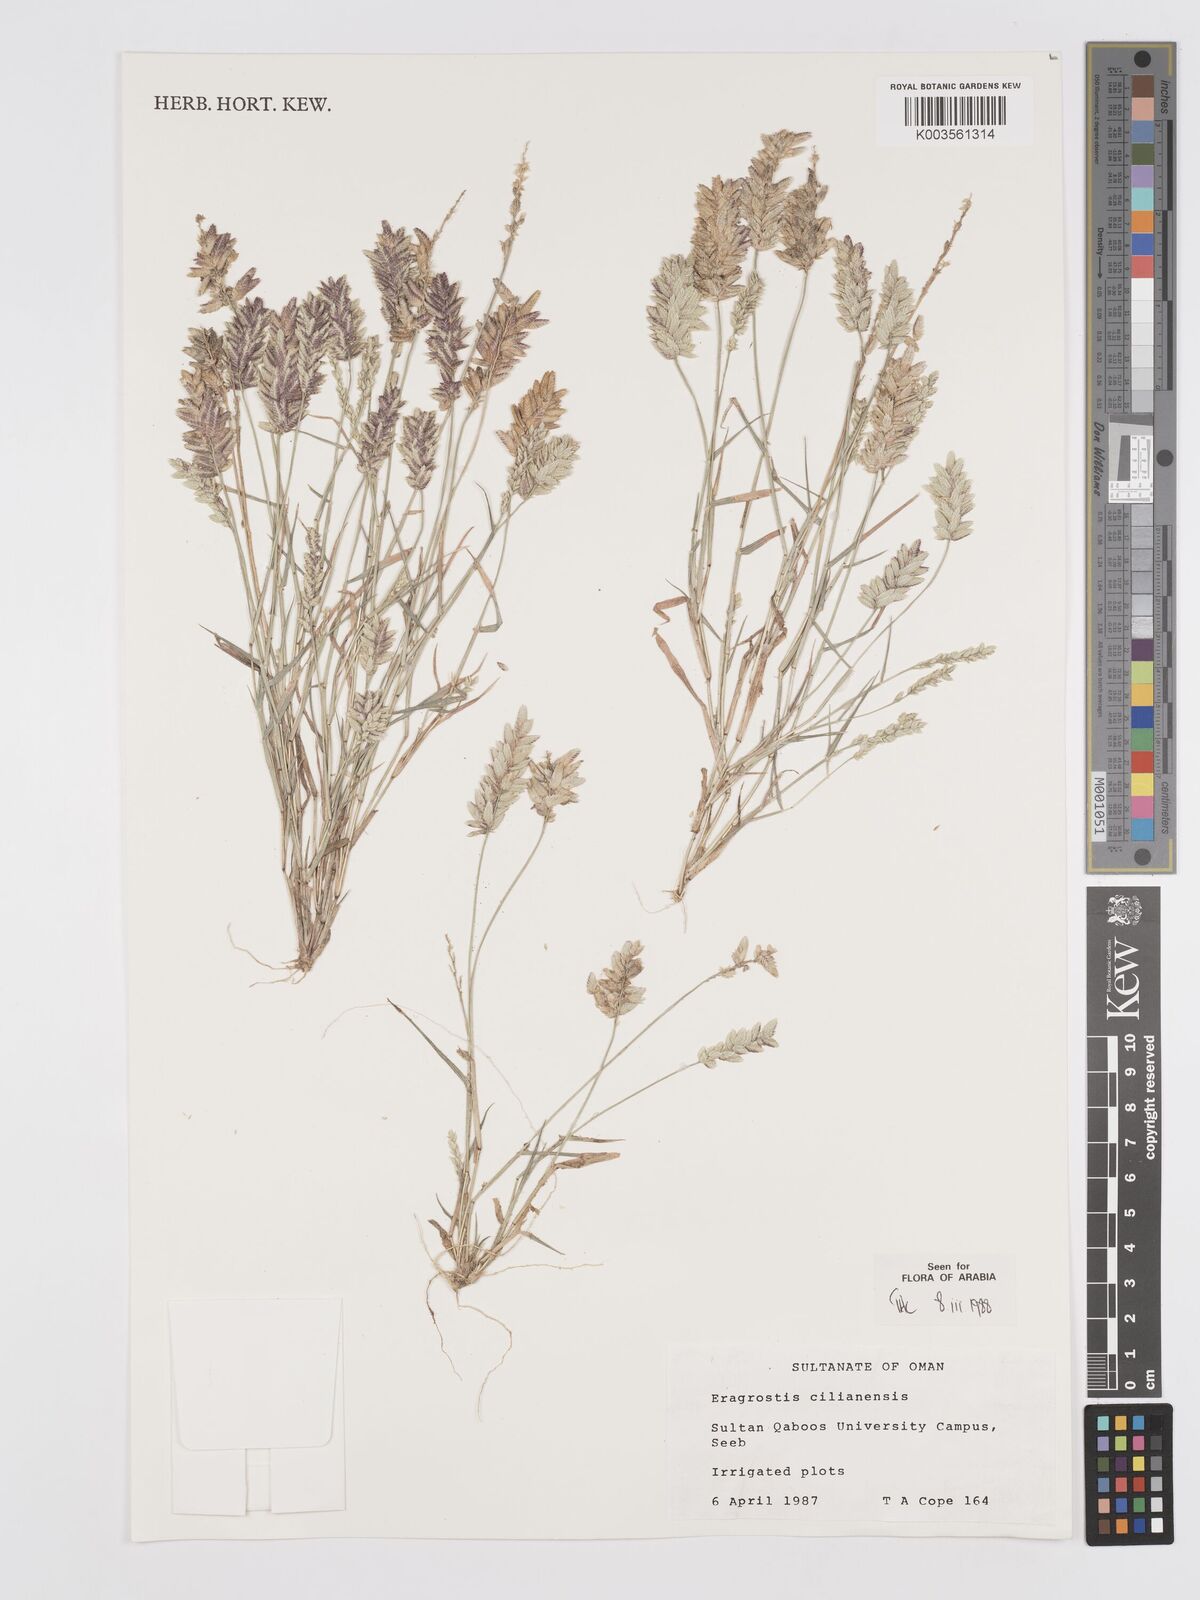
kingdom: Plantae
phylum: Tracheophyta
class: Liliopsida
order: Poales
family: Poaceae
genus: Eragrostis
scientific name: Eragrostis cilianensis
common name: Stinkgrass
